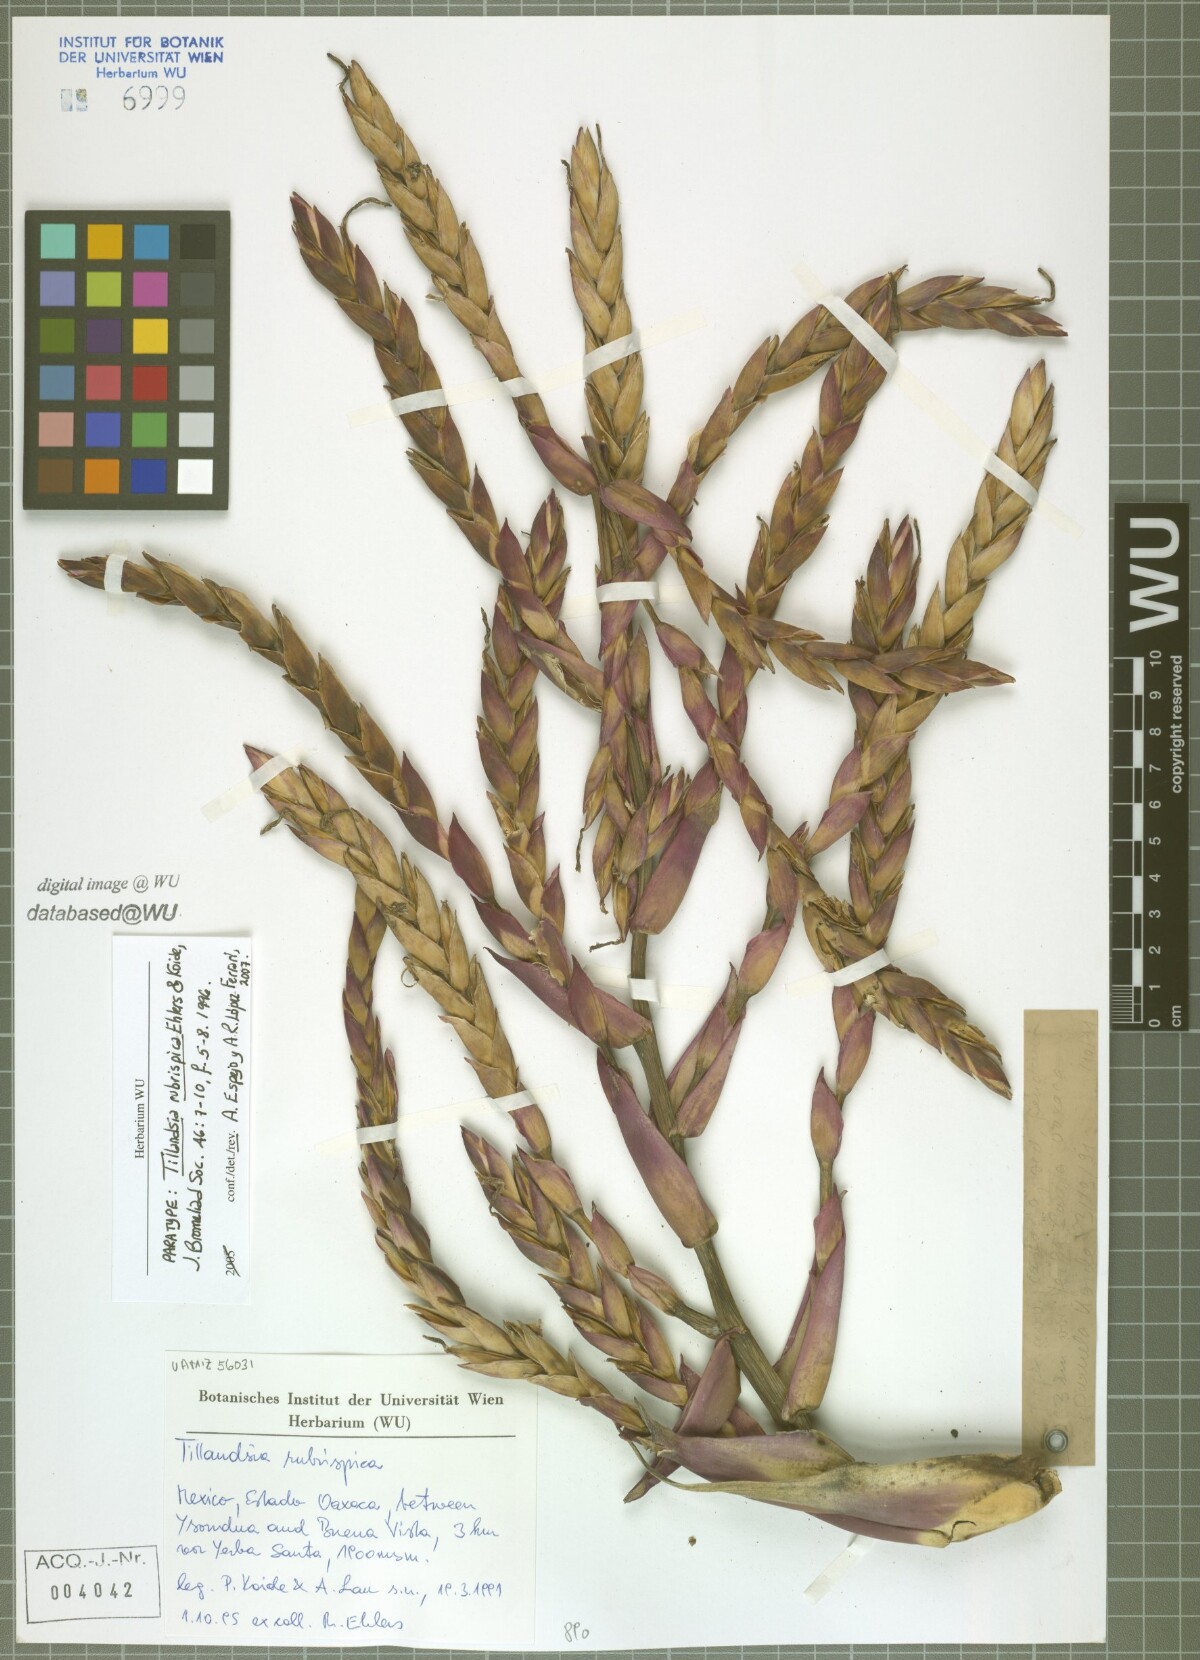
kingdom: Plantae
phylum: Tracheophyta
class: Liliopsida
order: Poales
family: Bromeliaceae
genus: Tillandsia
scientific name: Tillandsia rubrispica
